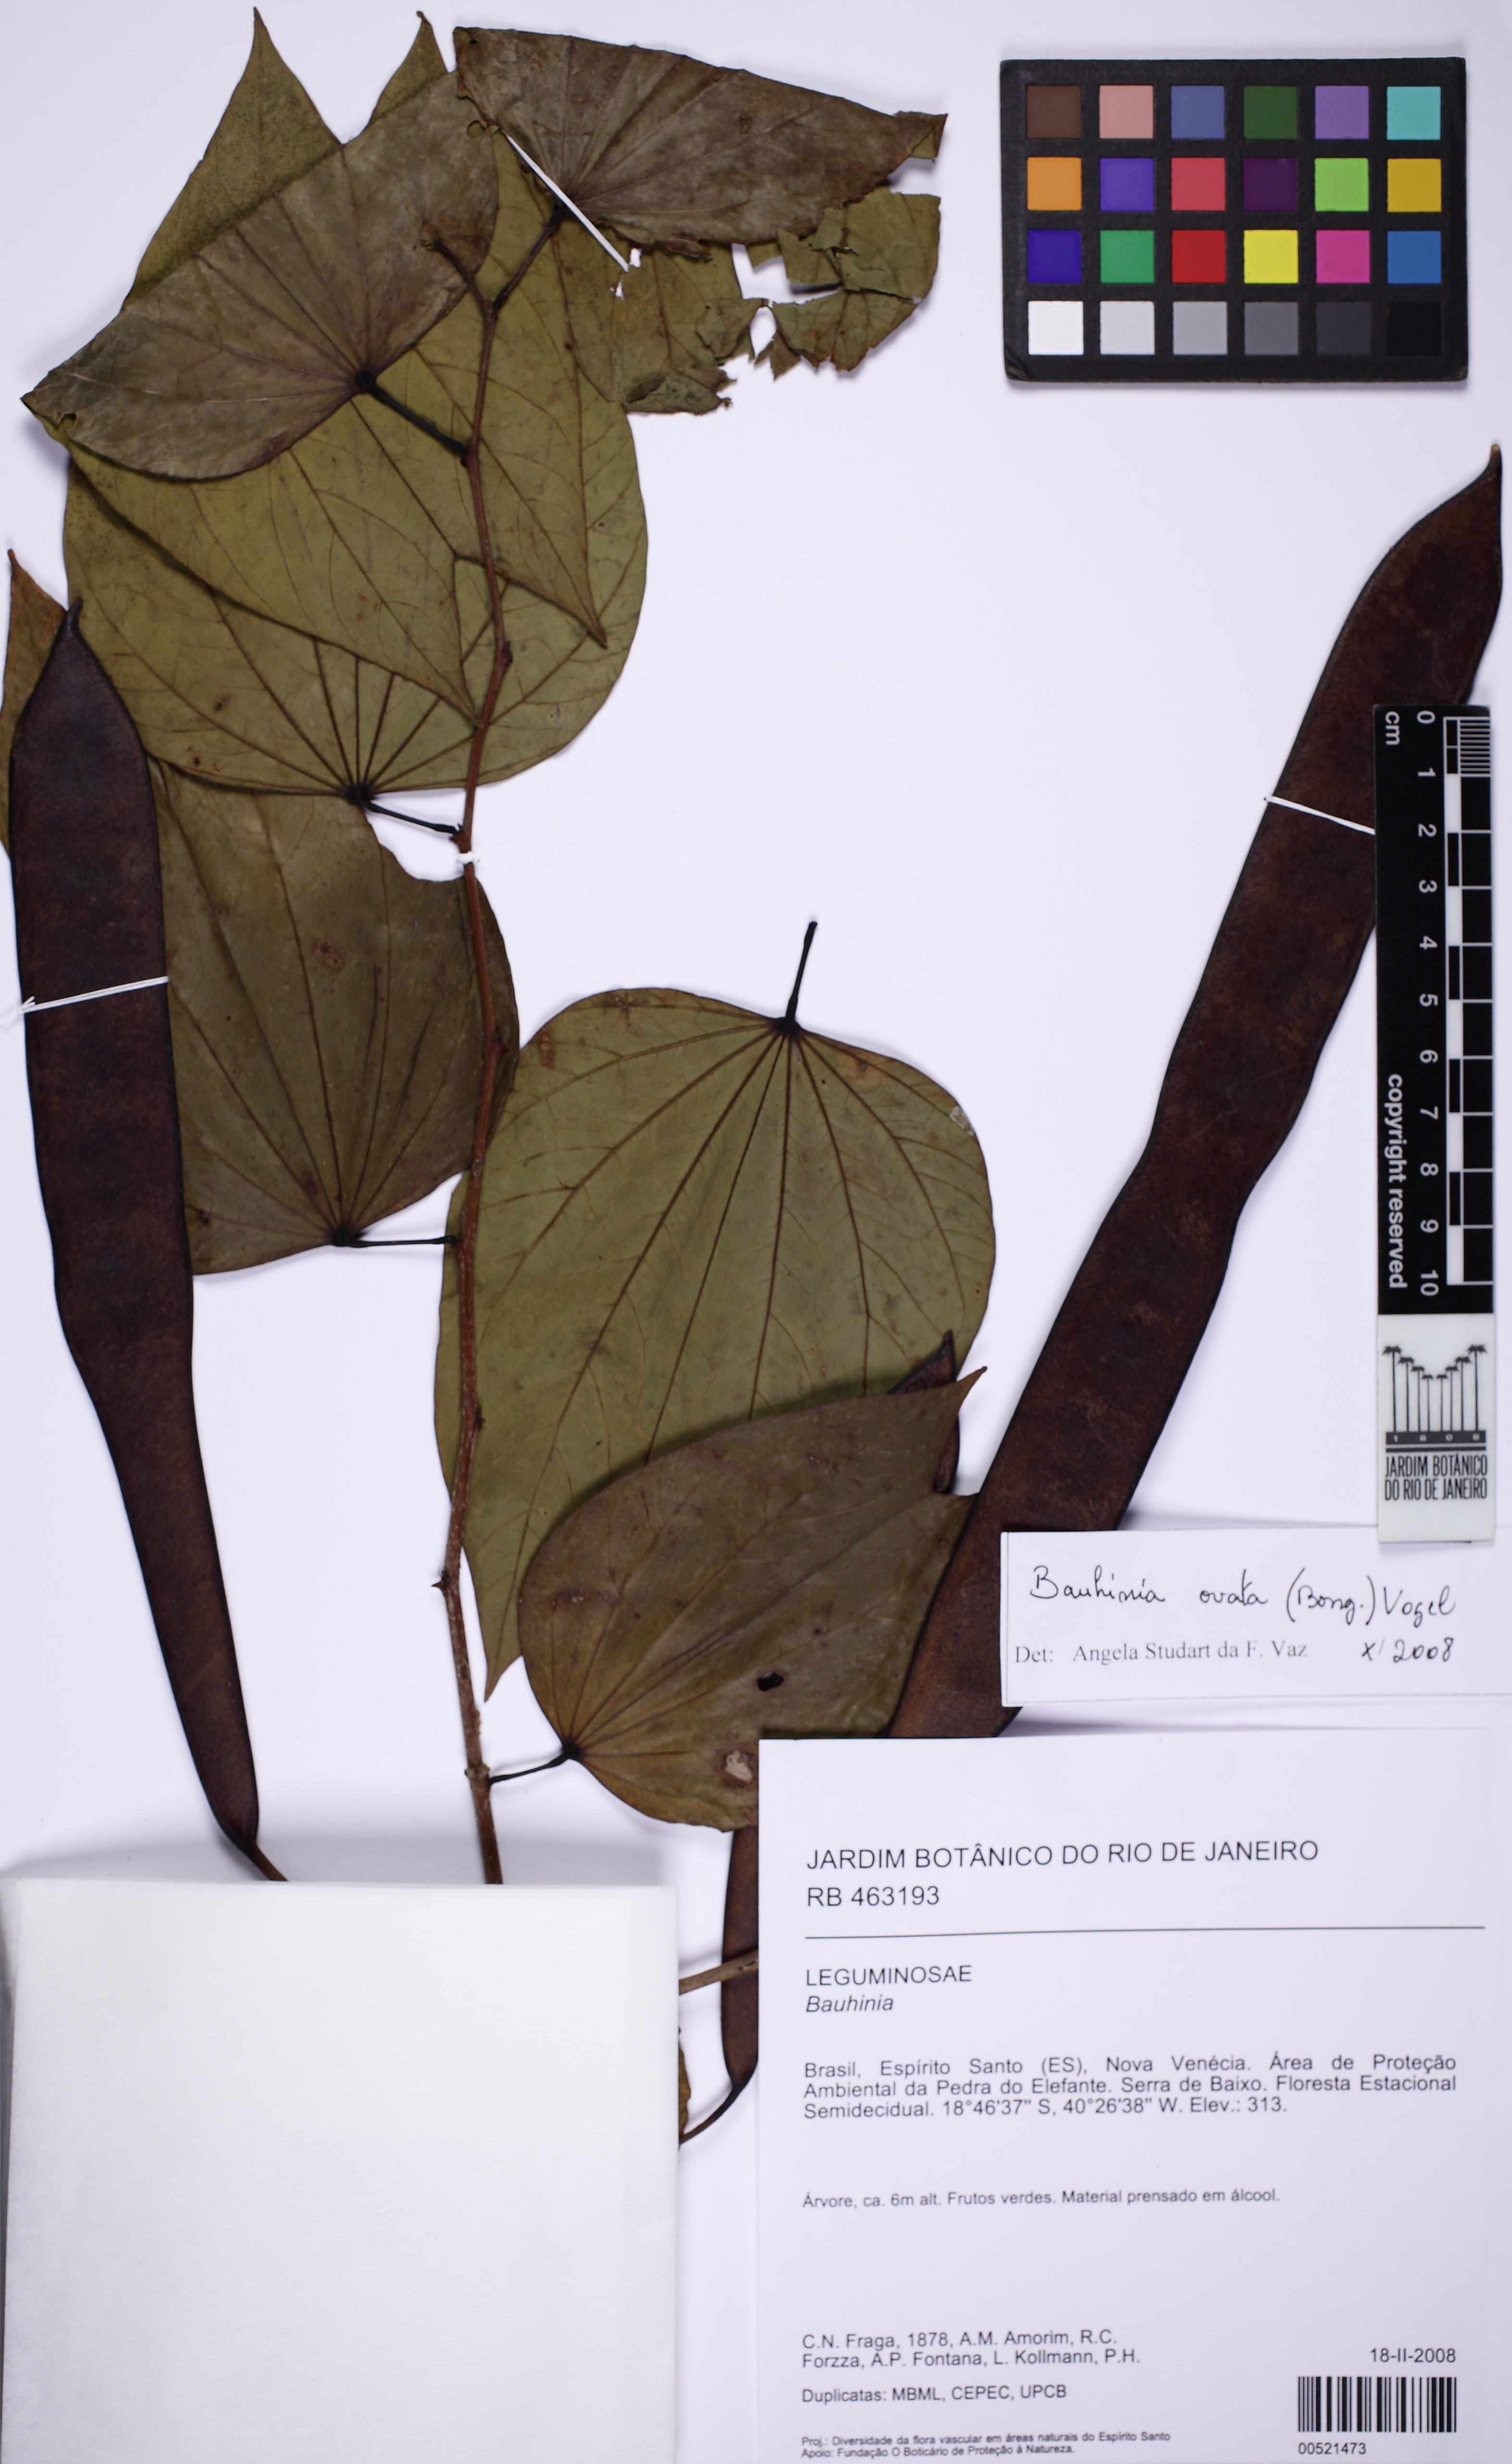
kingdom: Plantae
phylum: Tracheophyta
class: Magnoliopsida
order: Fabales
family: Fabaceae
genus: Bauhinia
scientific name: Bauhinia ovata
